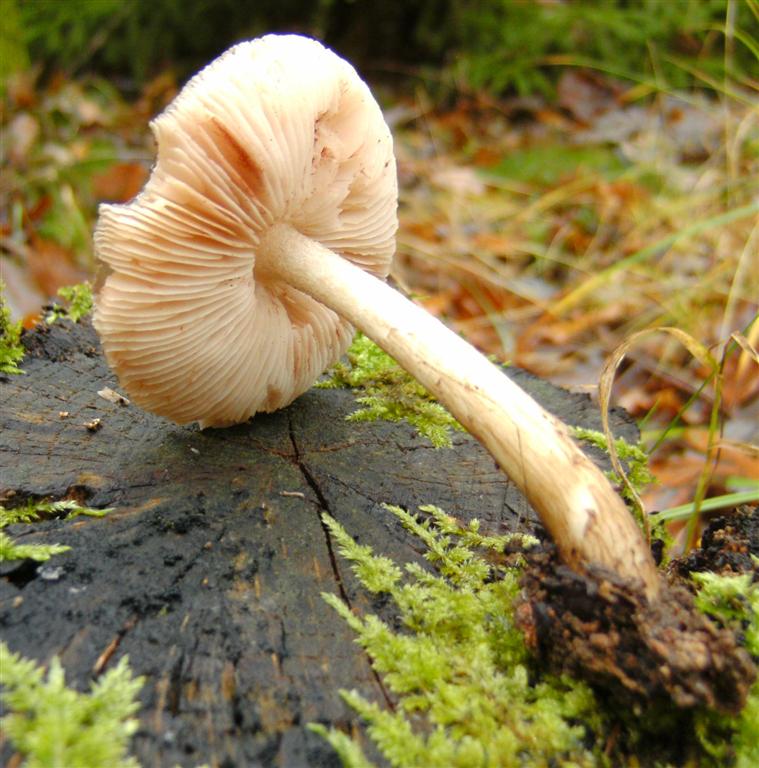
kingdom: Fungi
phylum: Basidiomycota
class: Agaricomycetes
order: Agaricales
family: Pluteaceae
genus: Pluteus
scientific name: Pluteus cervinus
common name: sodfarvet skærmhat
